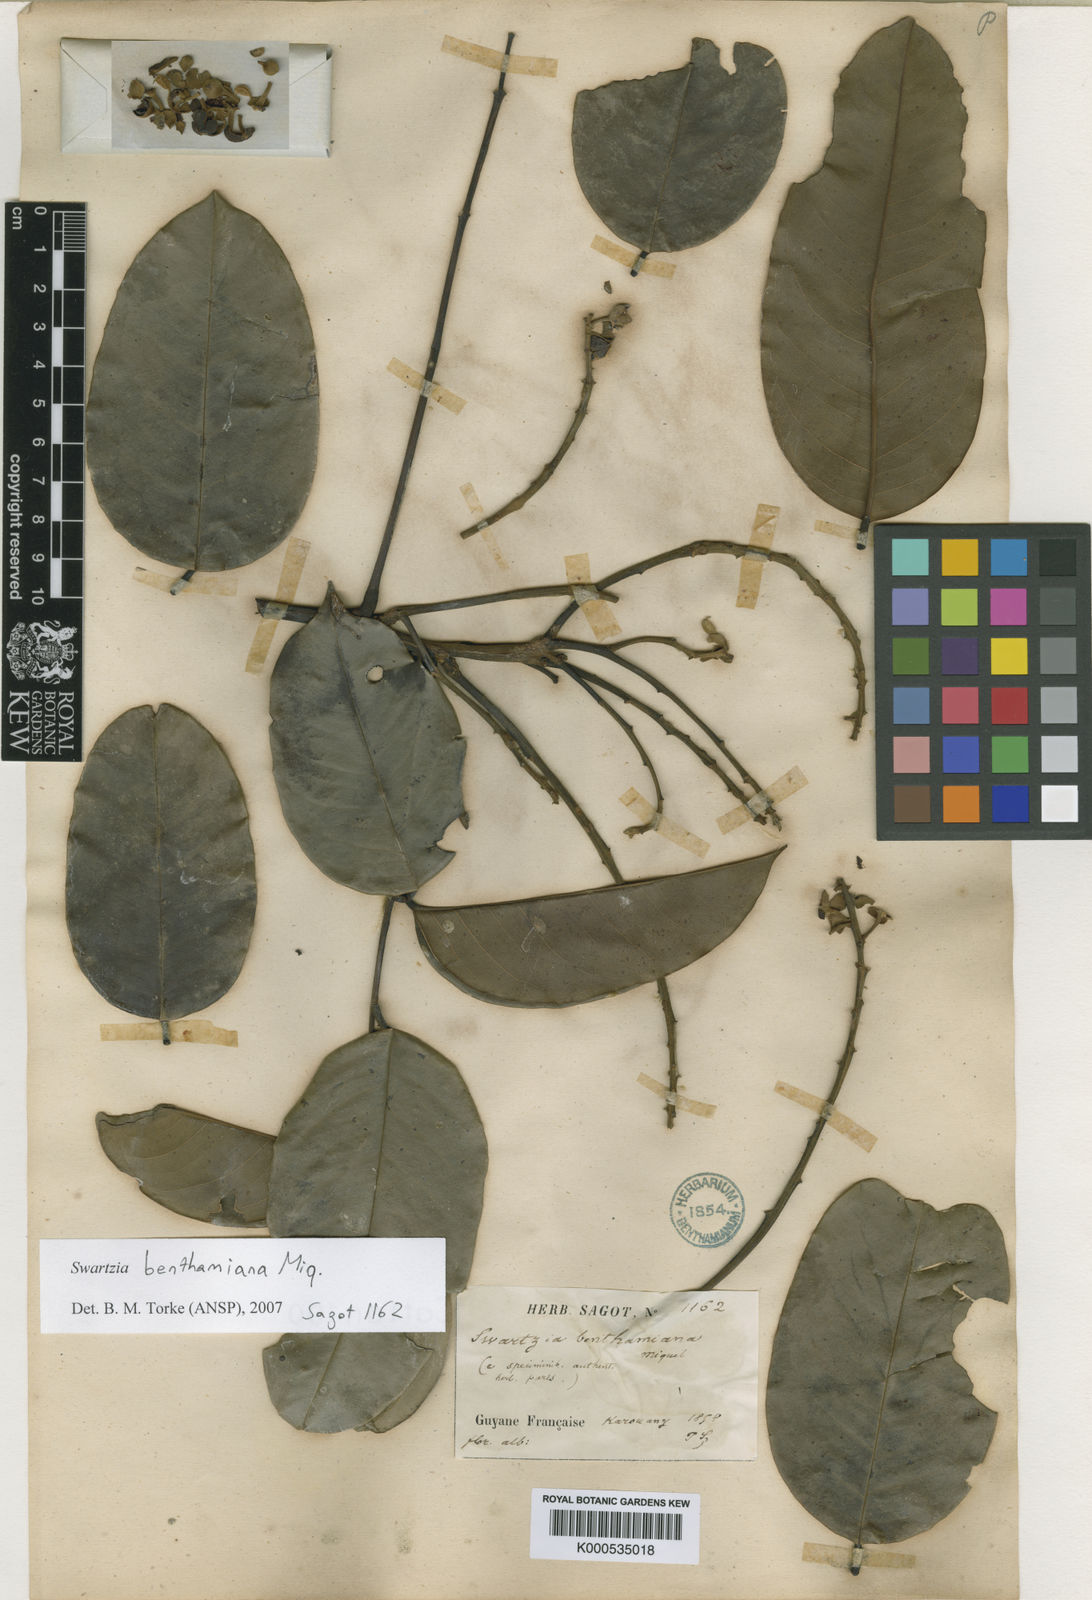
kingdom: Plantae
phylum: Tracheophyta
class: Magnoliopsida
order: Fabales
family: Fabaceae
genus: Swartzia
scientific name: Swartzia benthamiana
